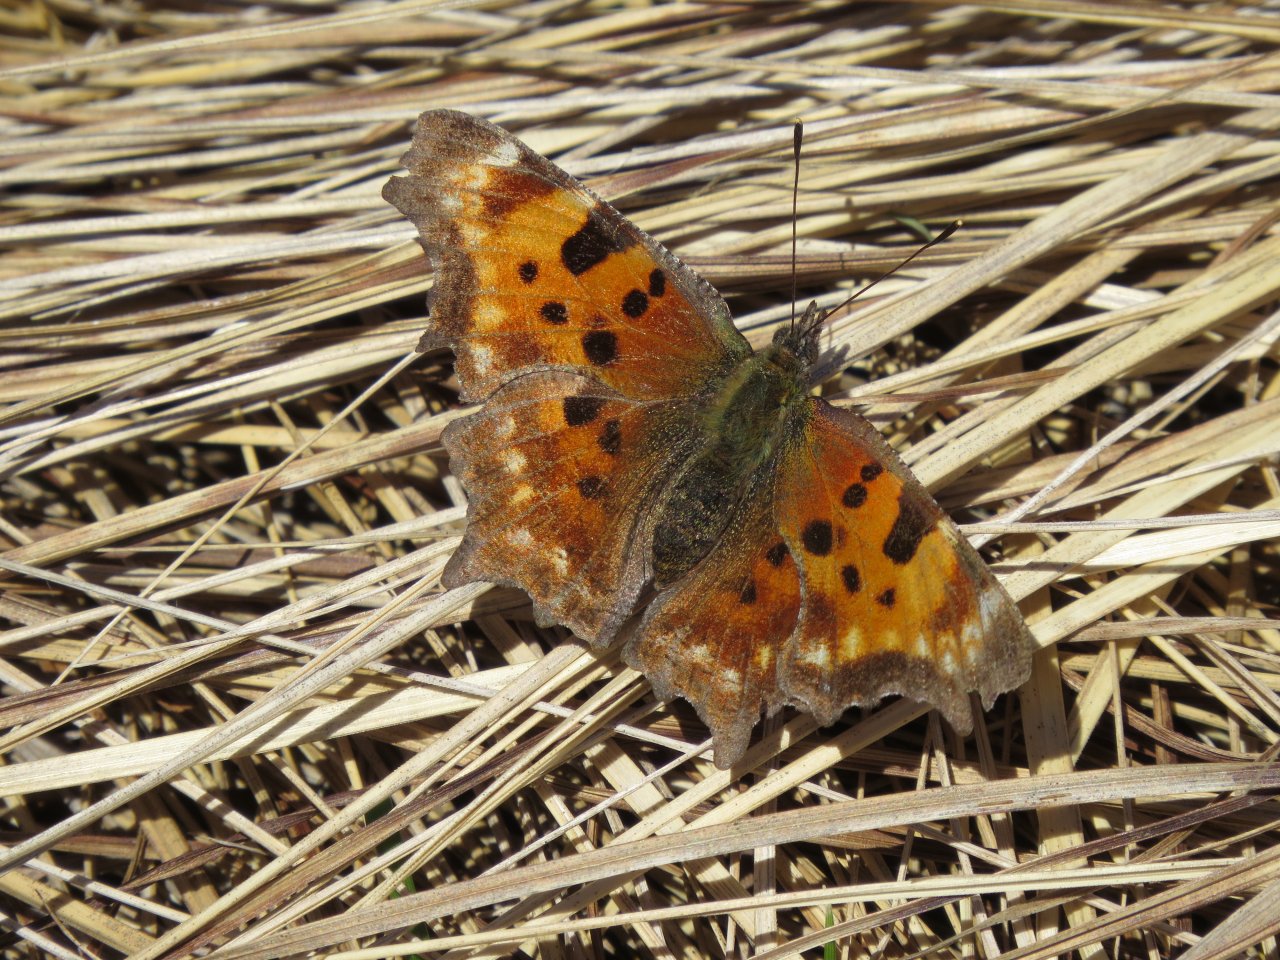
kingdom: Animalia
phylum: Arthropoda
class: Insecta
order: Lepidoptera
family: Nymphalidae
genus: Polygonia
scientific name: Polygonia faunus
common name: Green Comma
